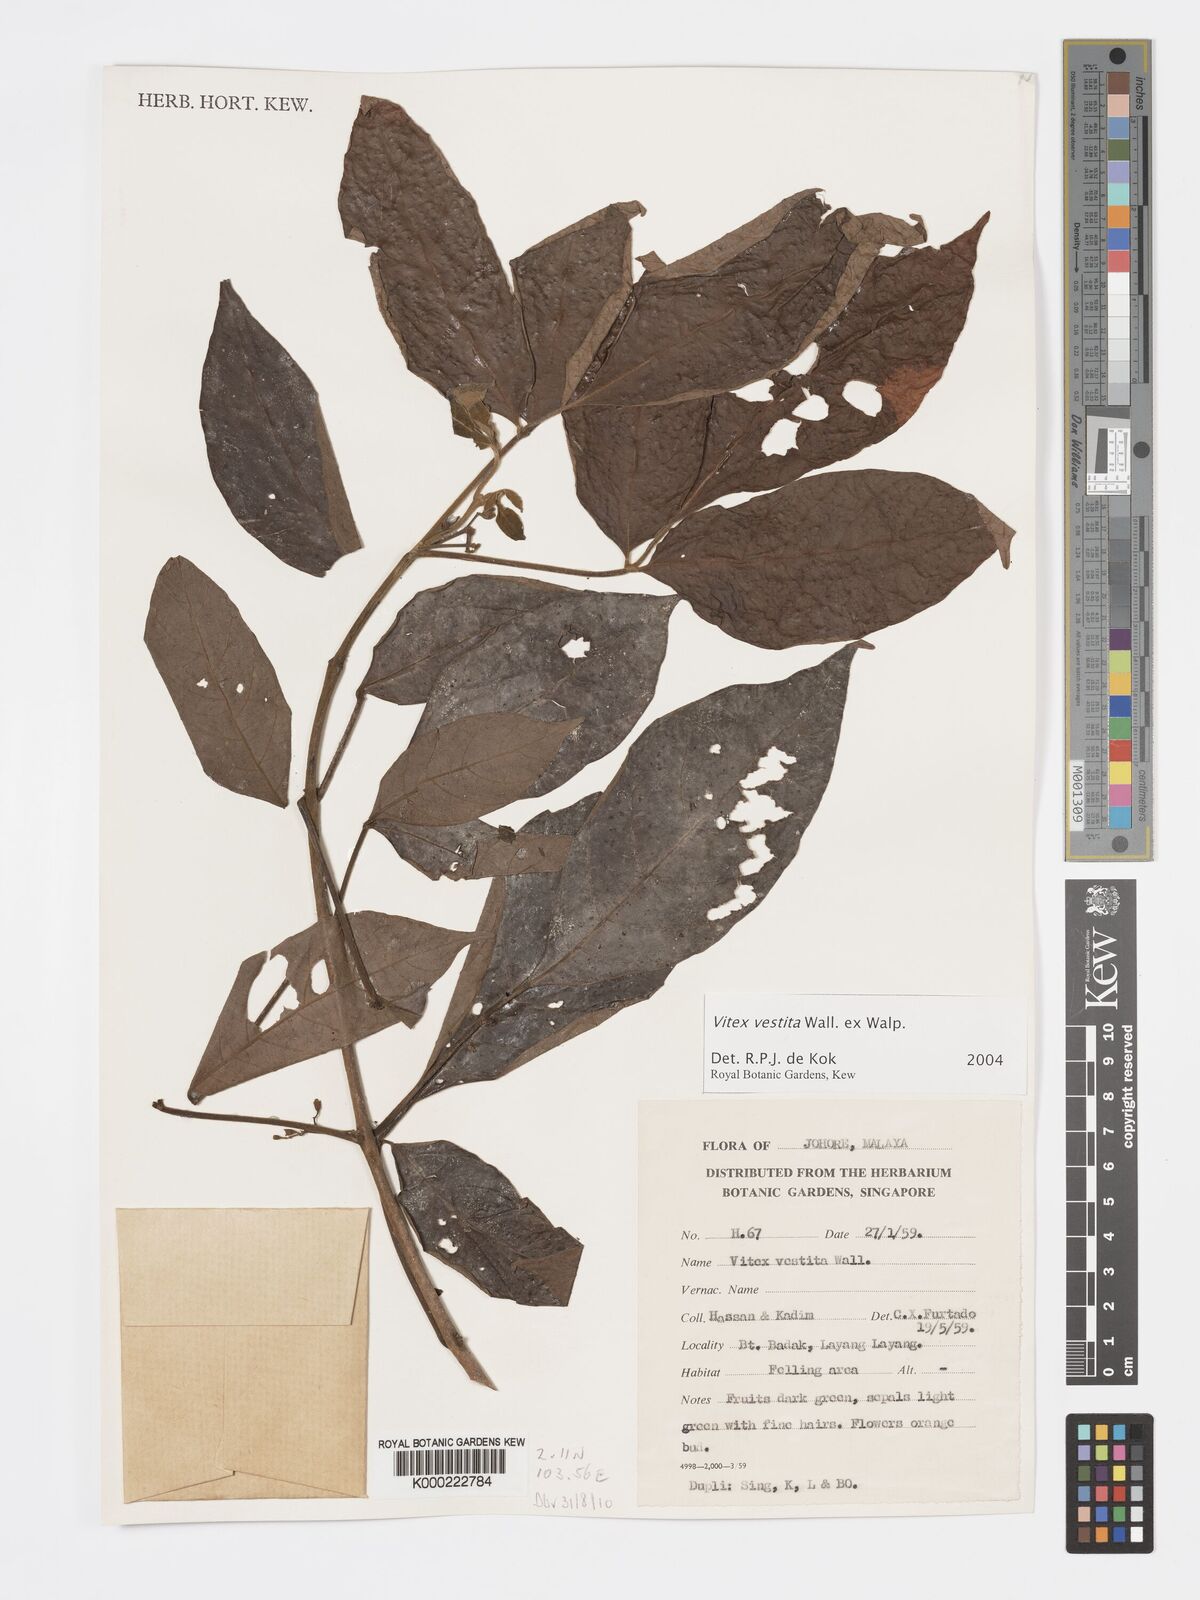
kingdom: Plantae
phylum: Tracheophyta
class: Magnoliopsida
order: Lamiales
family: Lamiaceae
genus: Vitex
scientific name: Vitex vestita
